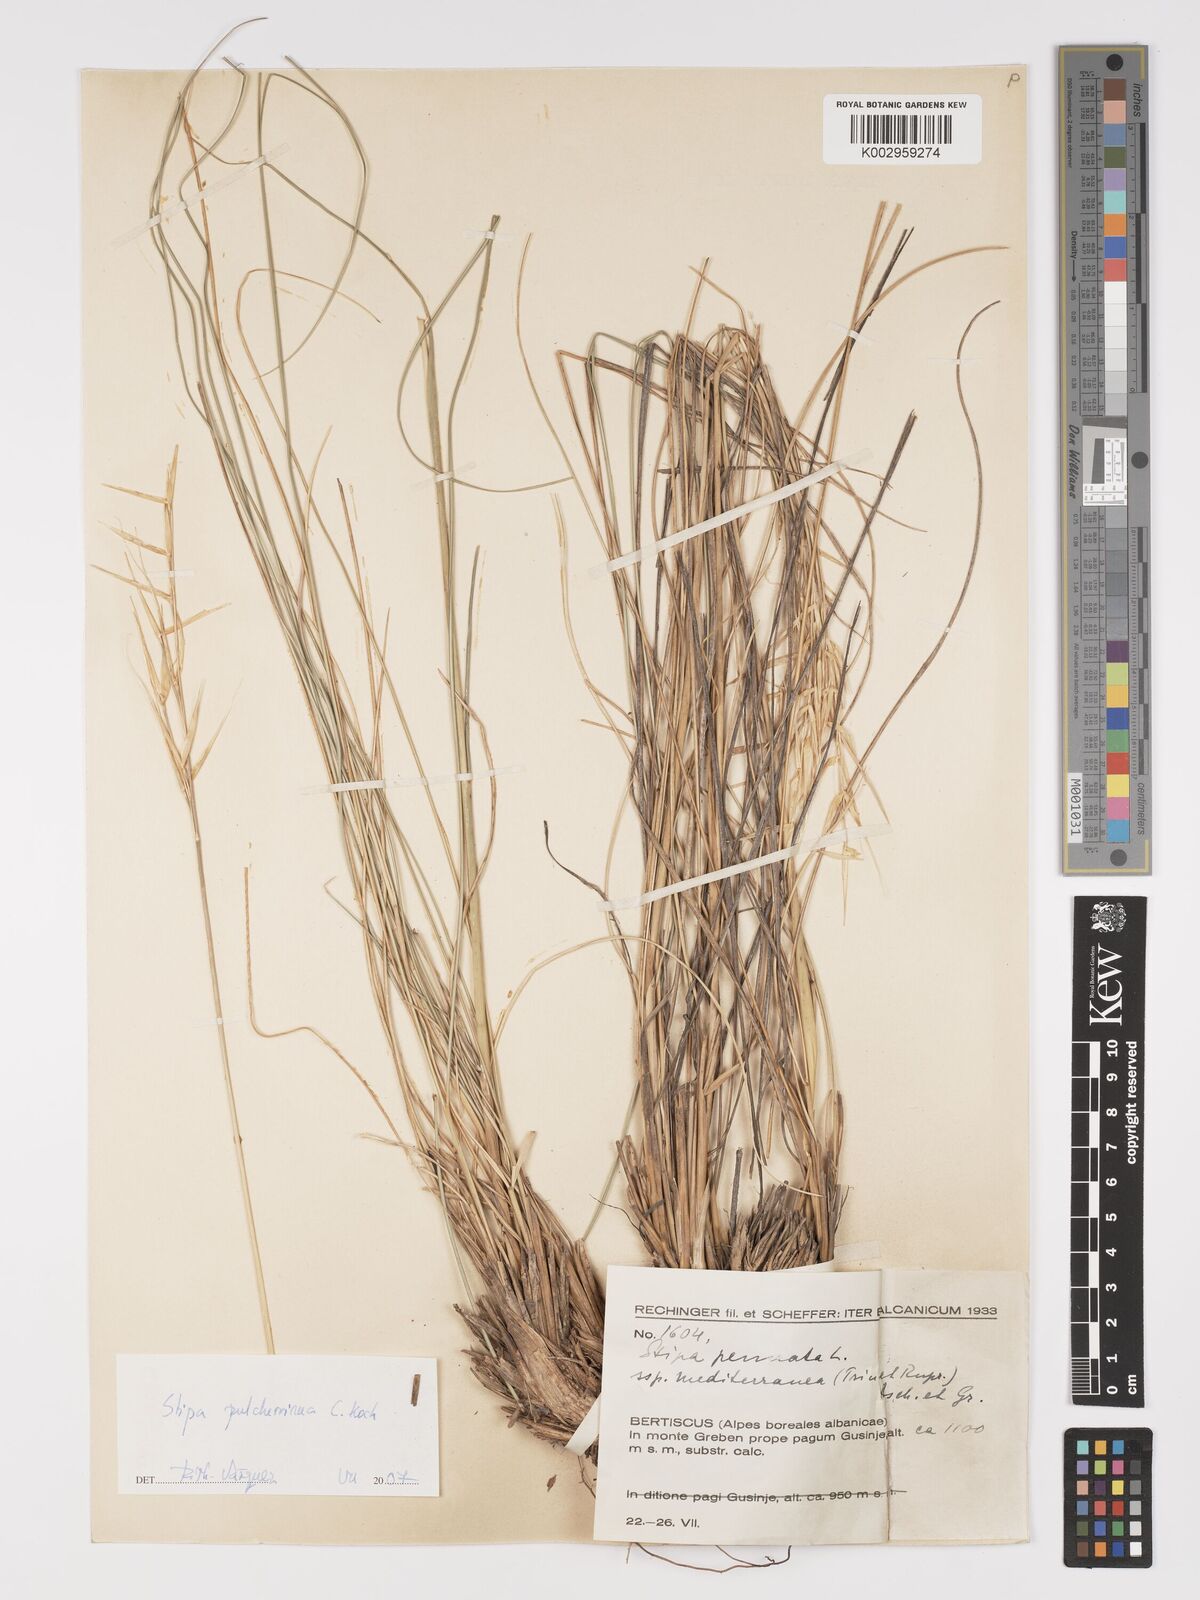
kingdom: Plantae
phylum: Tracheophyta
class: Liliopsida
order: Poales
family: Poaceae
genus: Stipa
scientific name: Stipa pulcherrima
